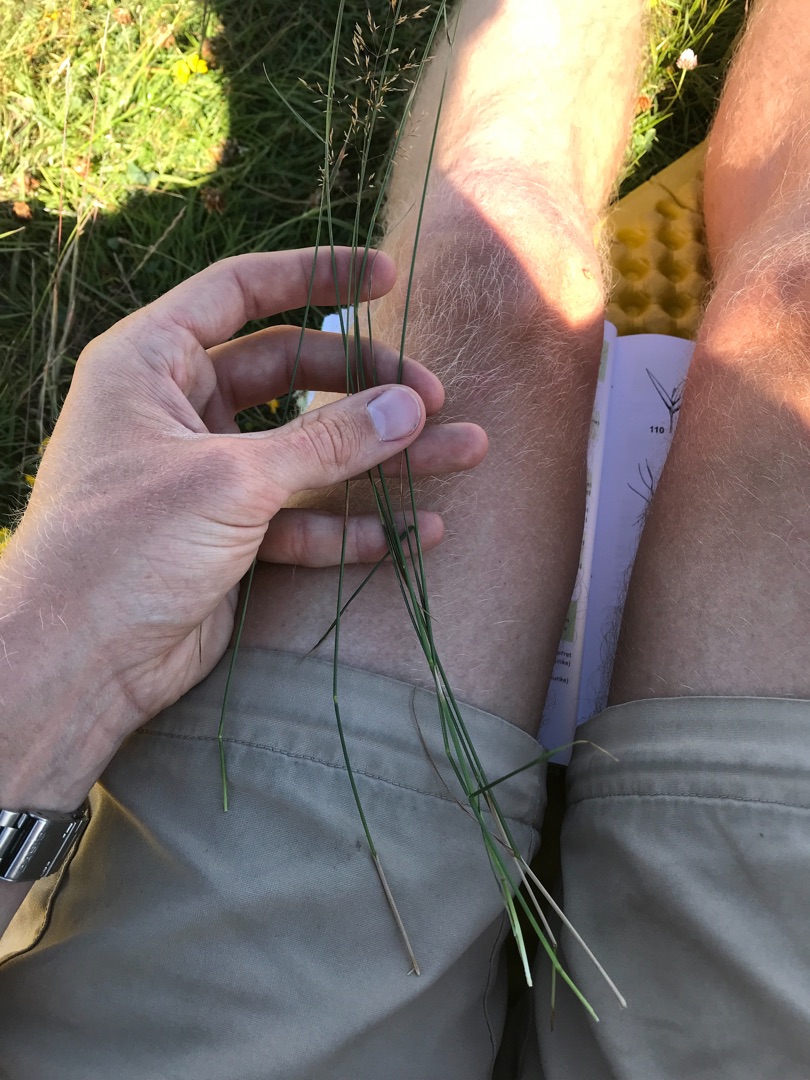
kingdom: Plantae
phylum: Tracheophyta
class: Liliopsida
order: Poales
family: Poaceae
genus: Agrostis
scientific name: Agrostis capillaris
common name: Almindelig hvene
